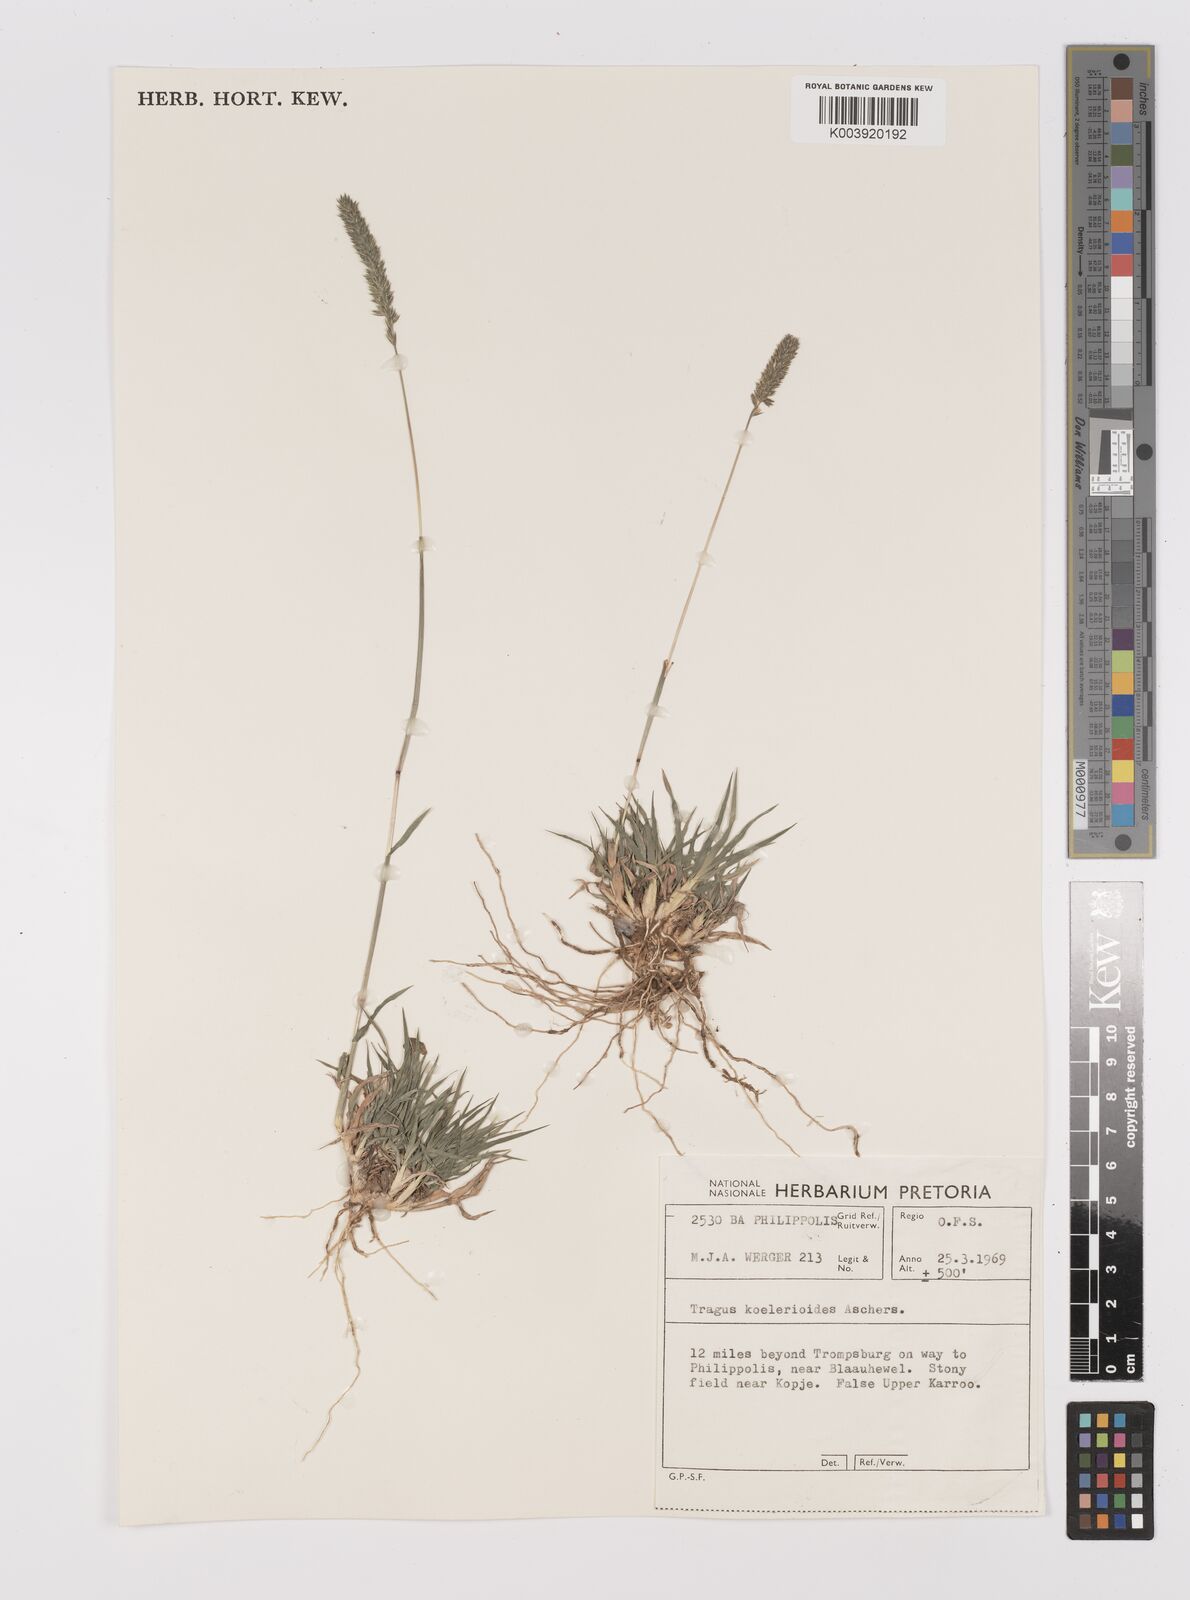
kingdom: Plantae
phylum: Tracheophyta
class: Liliopsida
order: Poales
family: Poaceae
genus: Tragus
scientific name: Tragus koelerioides
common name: Creeping carrot-seed grass
